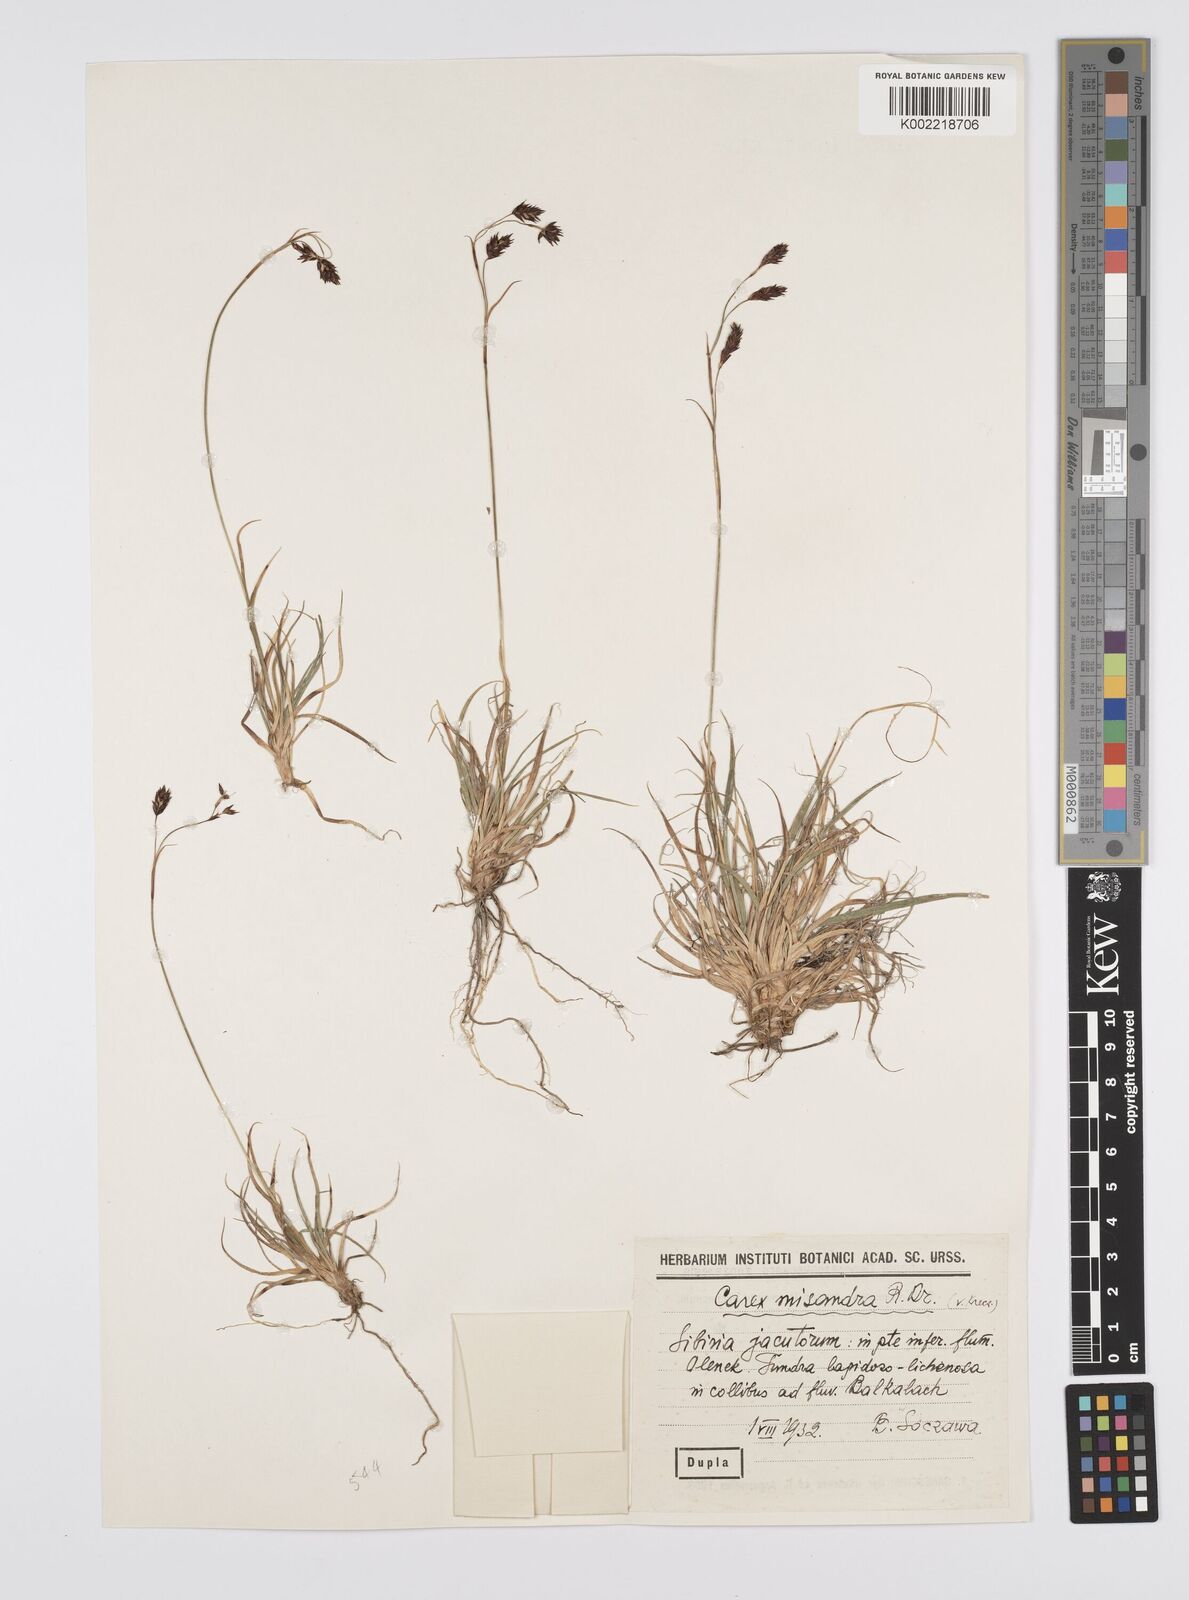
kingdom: Plantae
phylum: Tracheophyta
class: Liliopsida
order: Poales
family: Cyperaceae
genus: Carex
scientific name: Carex fuliginosa
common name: Few-flowered sedge
